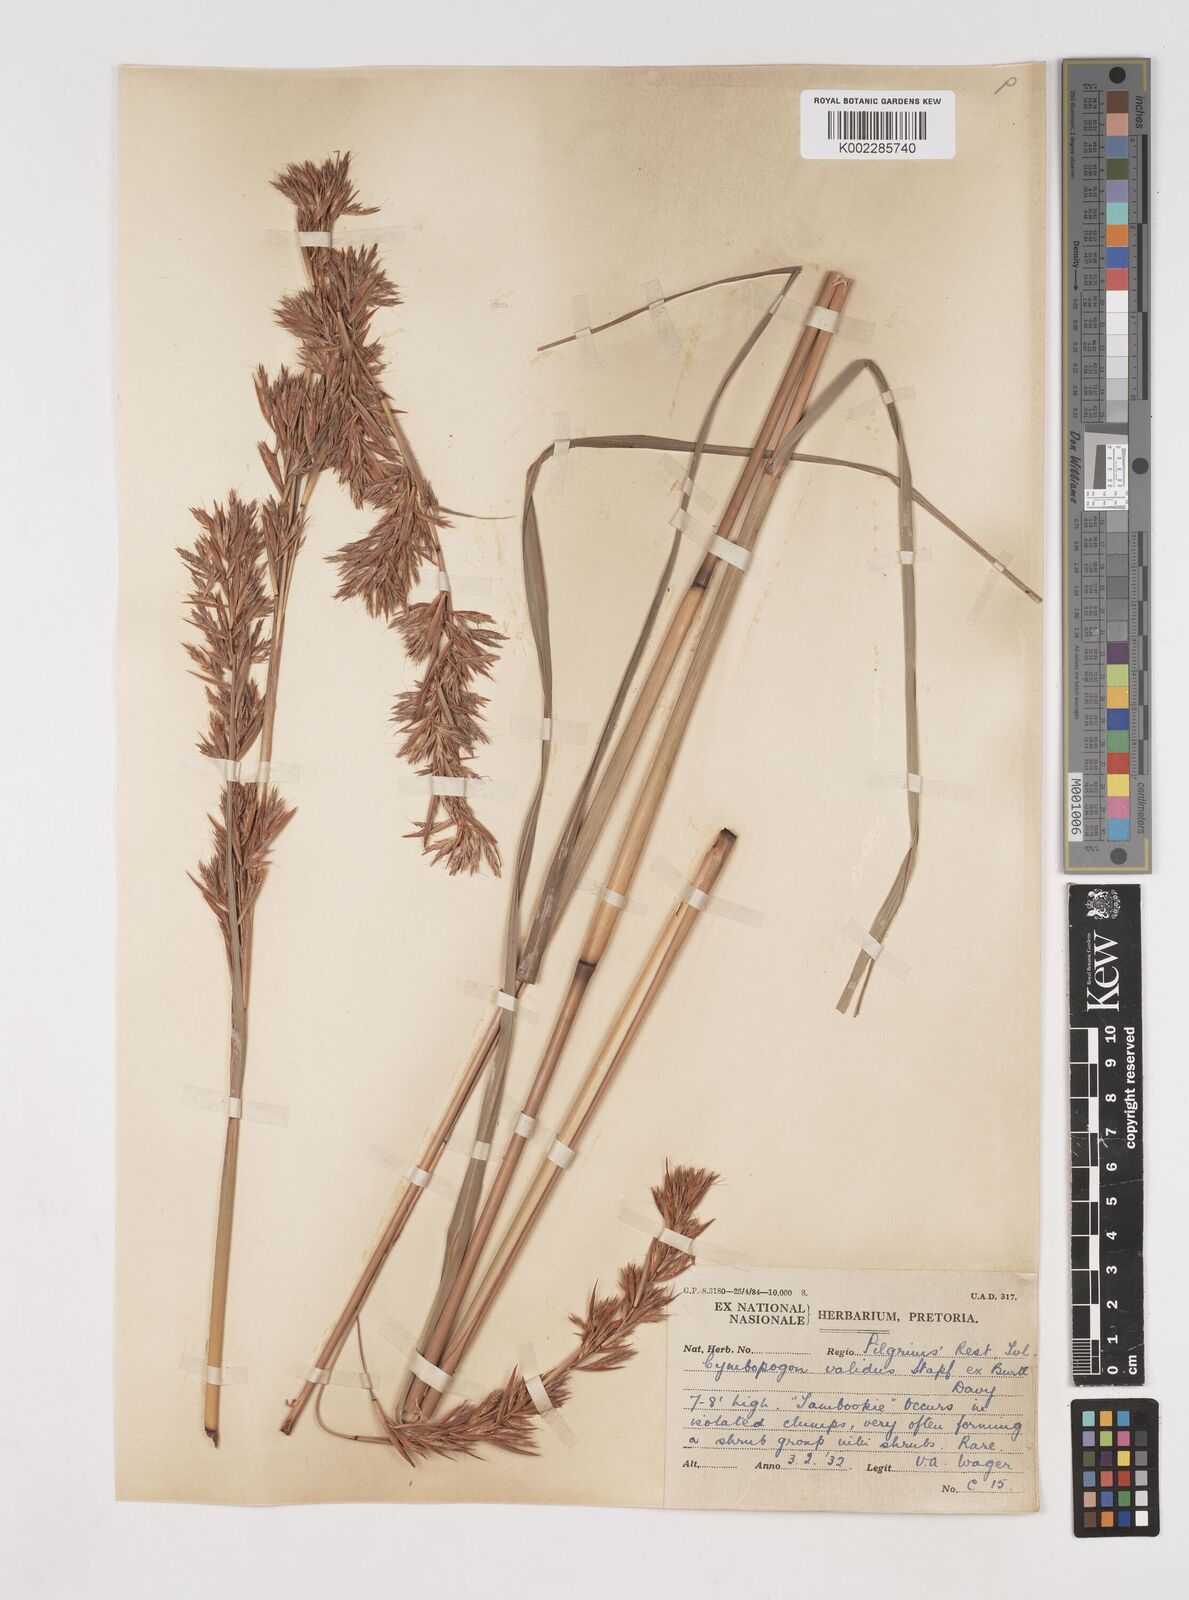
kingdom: Plantae
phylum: Tracheophyta
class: Liliopsida
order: Poales
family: Poaceae
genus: Cymbopogon
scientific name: Cymbopogon nardus
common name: Giant turpentine grass
